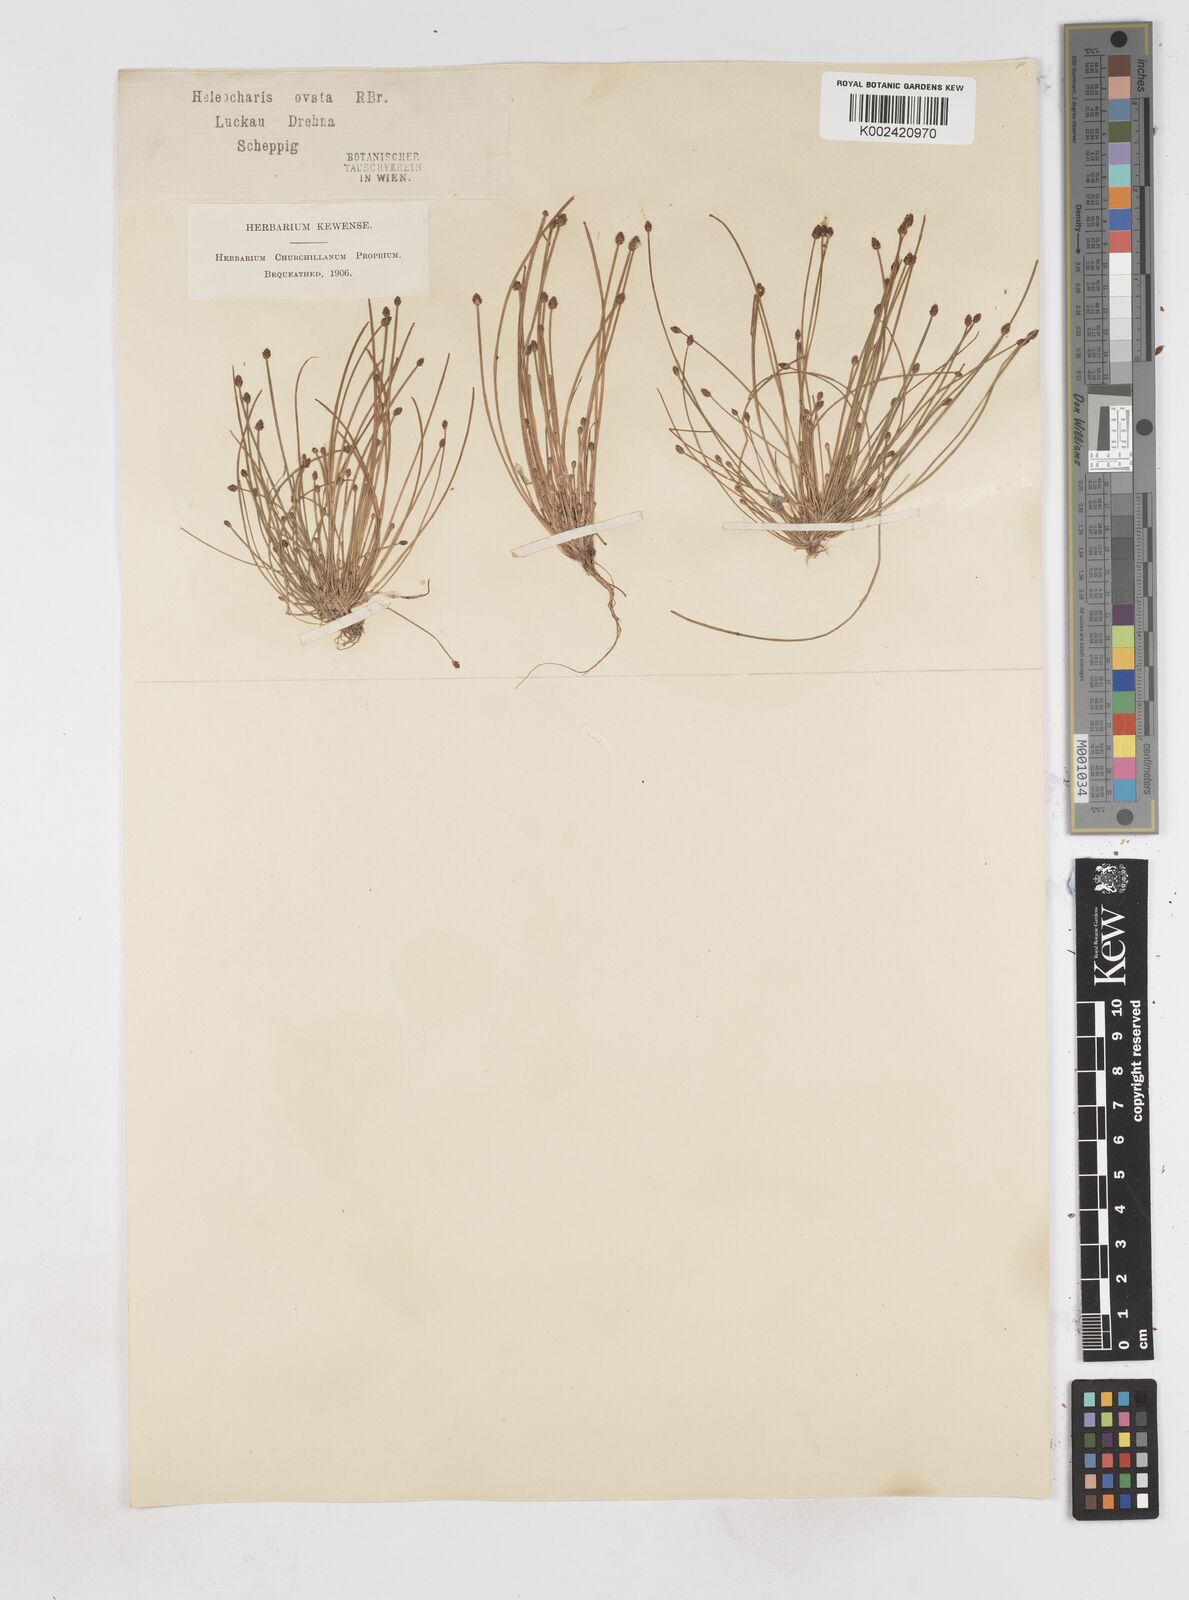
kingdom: Plantae
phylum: Tracheophyta
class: Liliopsida
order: Poales
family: Cyperaceae
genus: Eleocharis
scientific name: Eleocharis ovata
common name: Oval spike-rush
